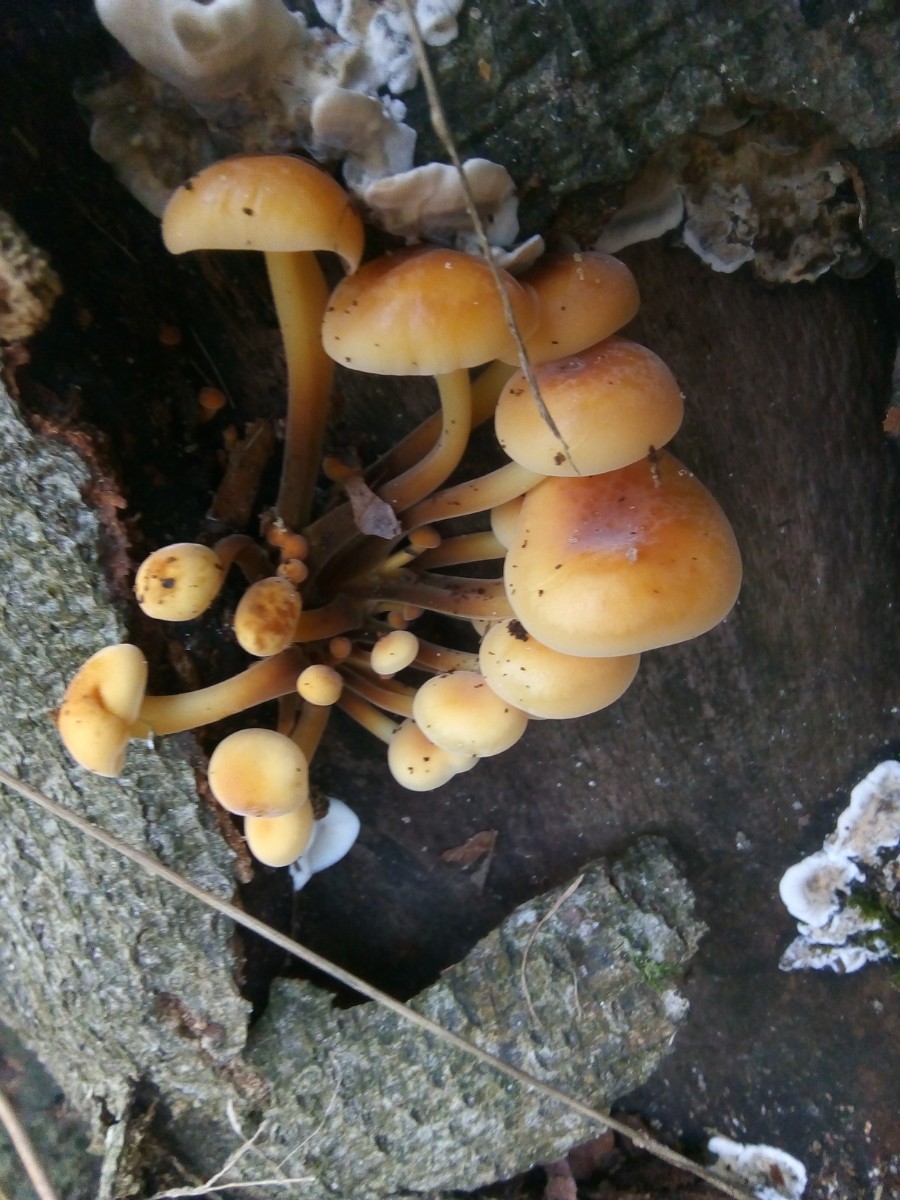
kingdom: Fungi
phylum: Basidiomycota
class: Agaricomycetes
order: Agaricales
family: Physalacriaceae
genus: Flammulina
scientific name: Flammulina velutipes
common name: gul fløjlsfod
